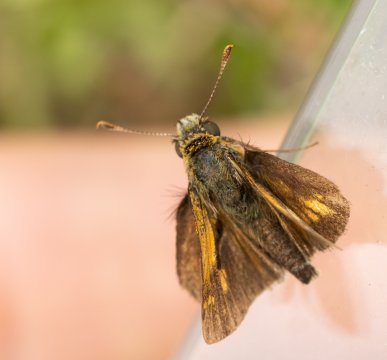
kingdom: Animalia
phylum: Arthropoda
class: Insecta
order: Lepidoptera
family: Hesperiidae
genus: Polites
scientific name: Polites coras
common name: Peck's Skipper
